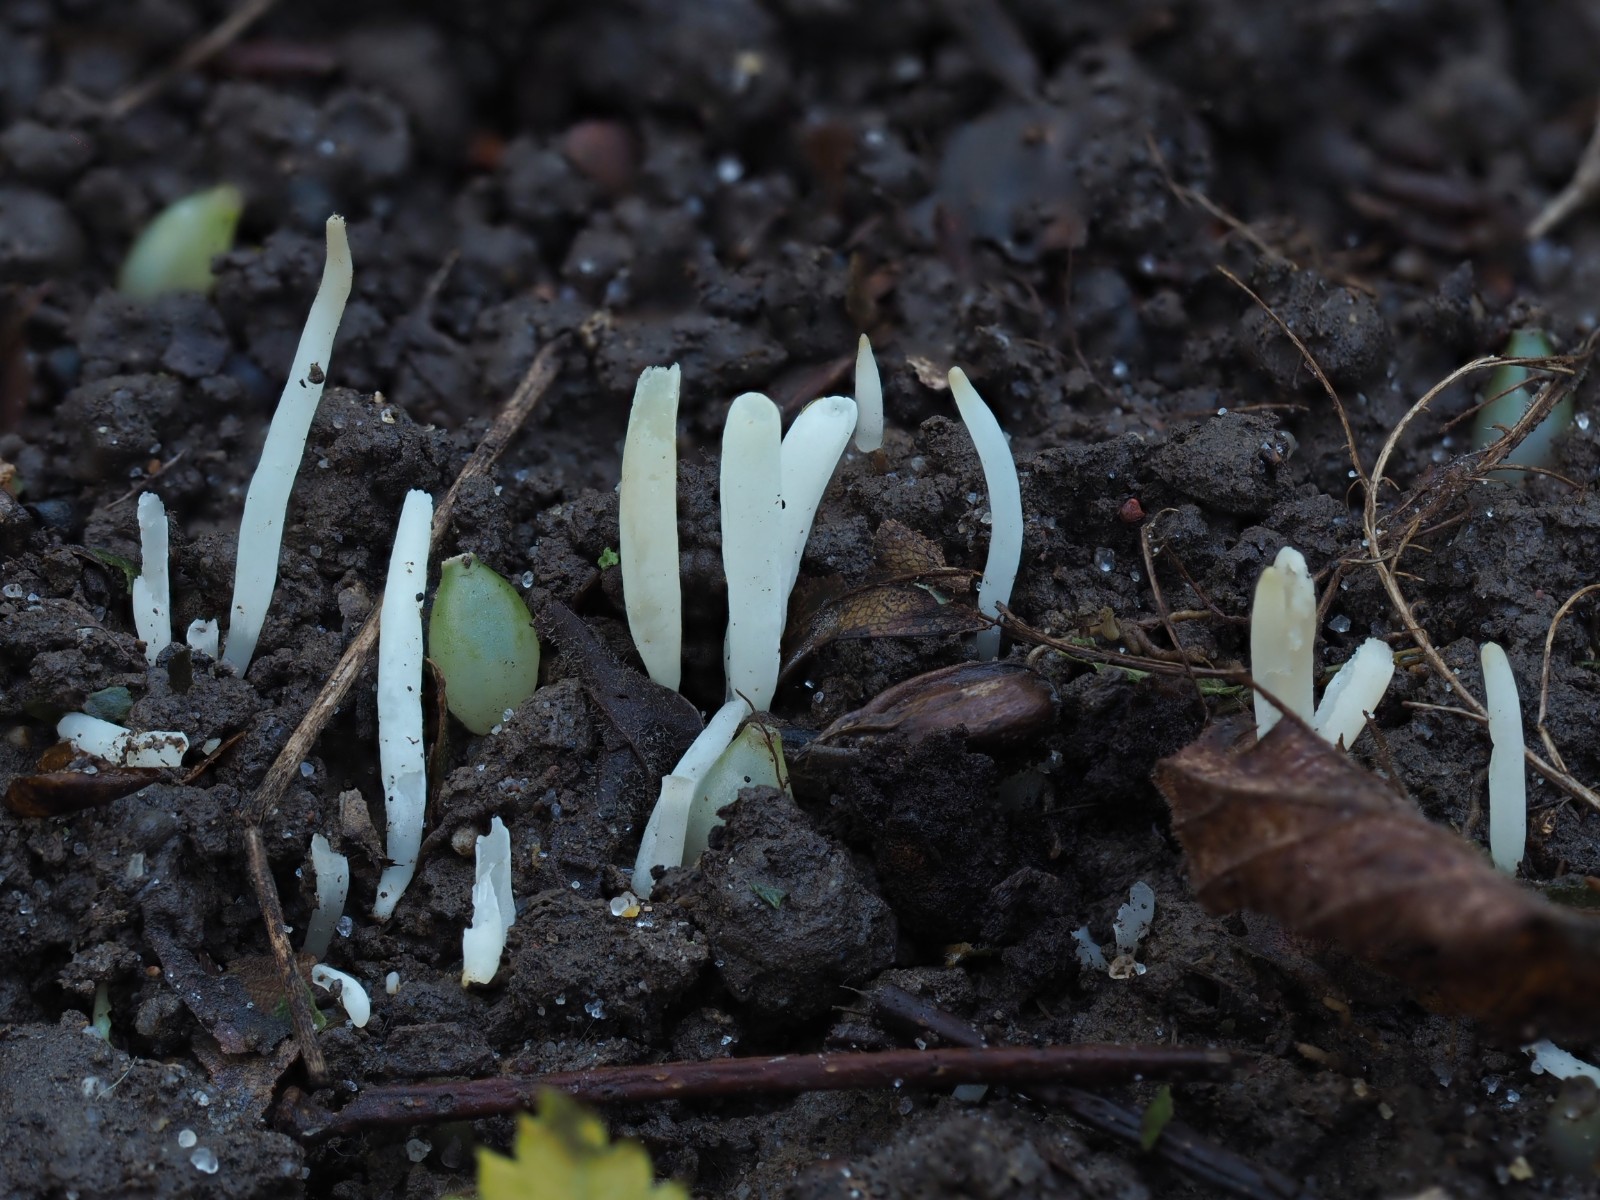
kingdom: Fungi
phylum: Basidiomycota
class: Agaricomycetes
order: Agaricales
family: Clavariaceae
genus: Clavaria
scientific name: Clavaria fragilis
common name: bugtet køllesvamp
